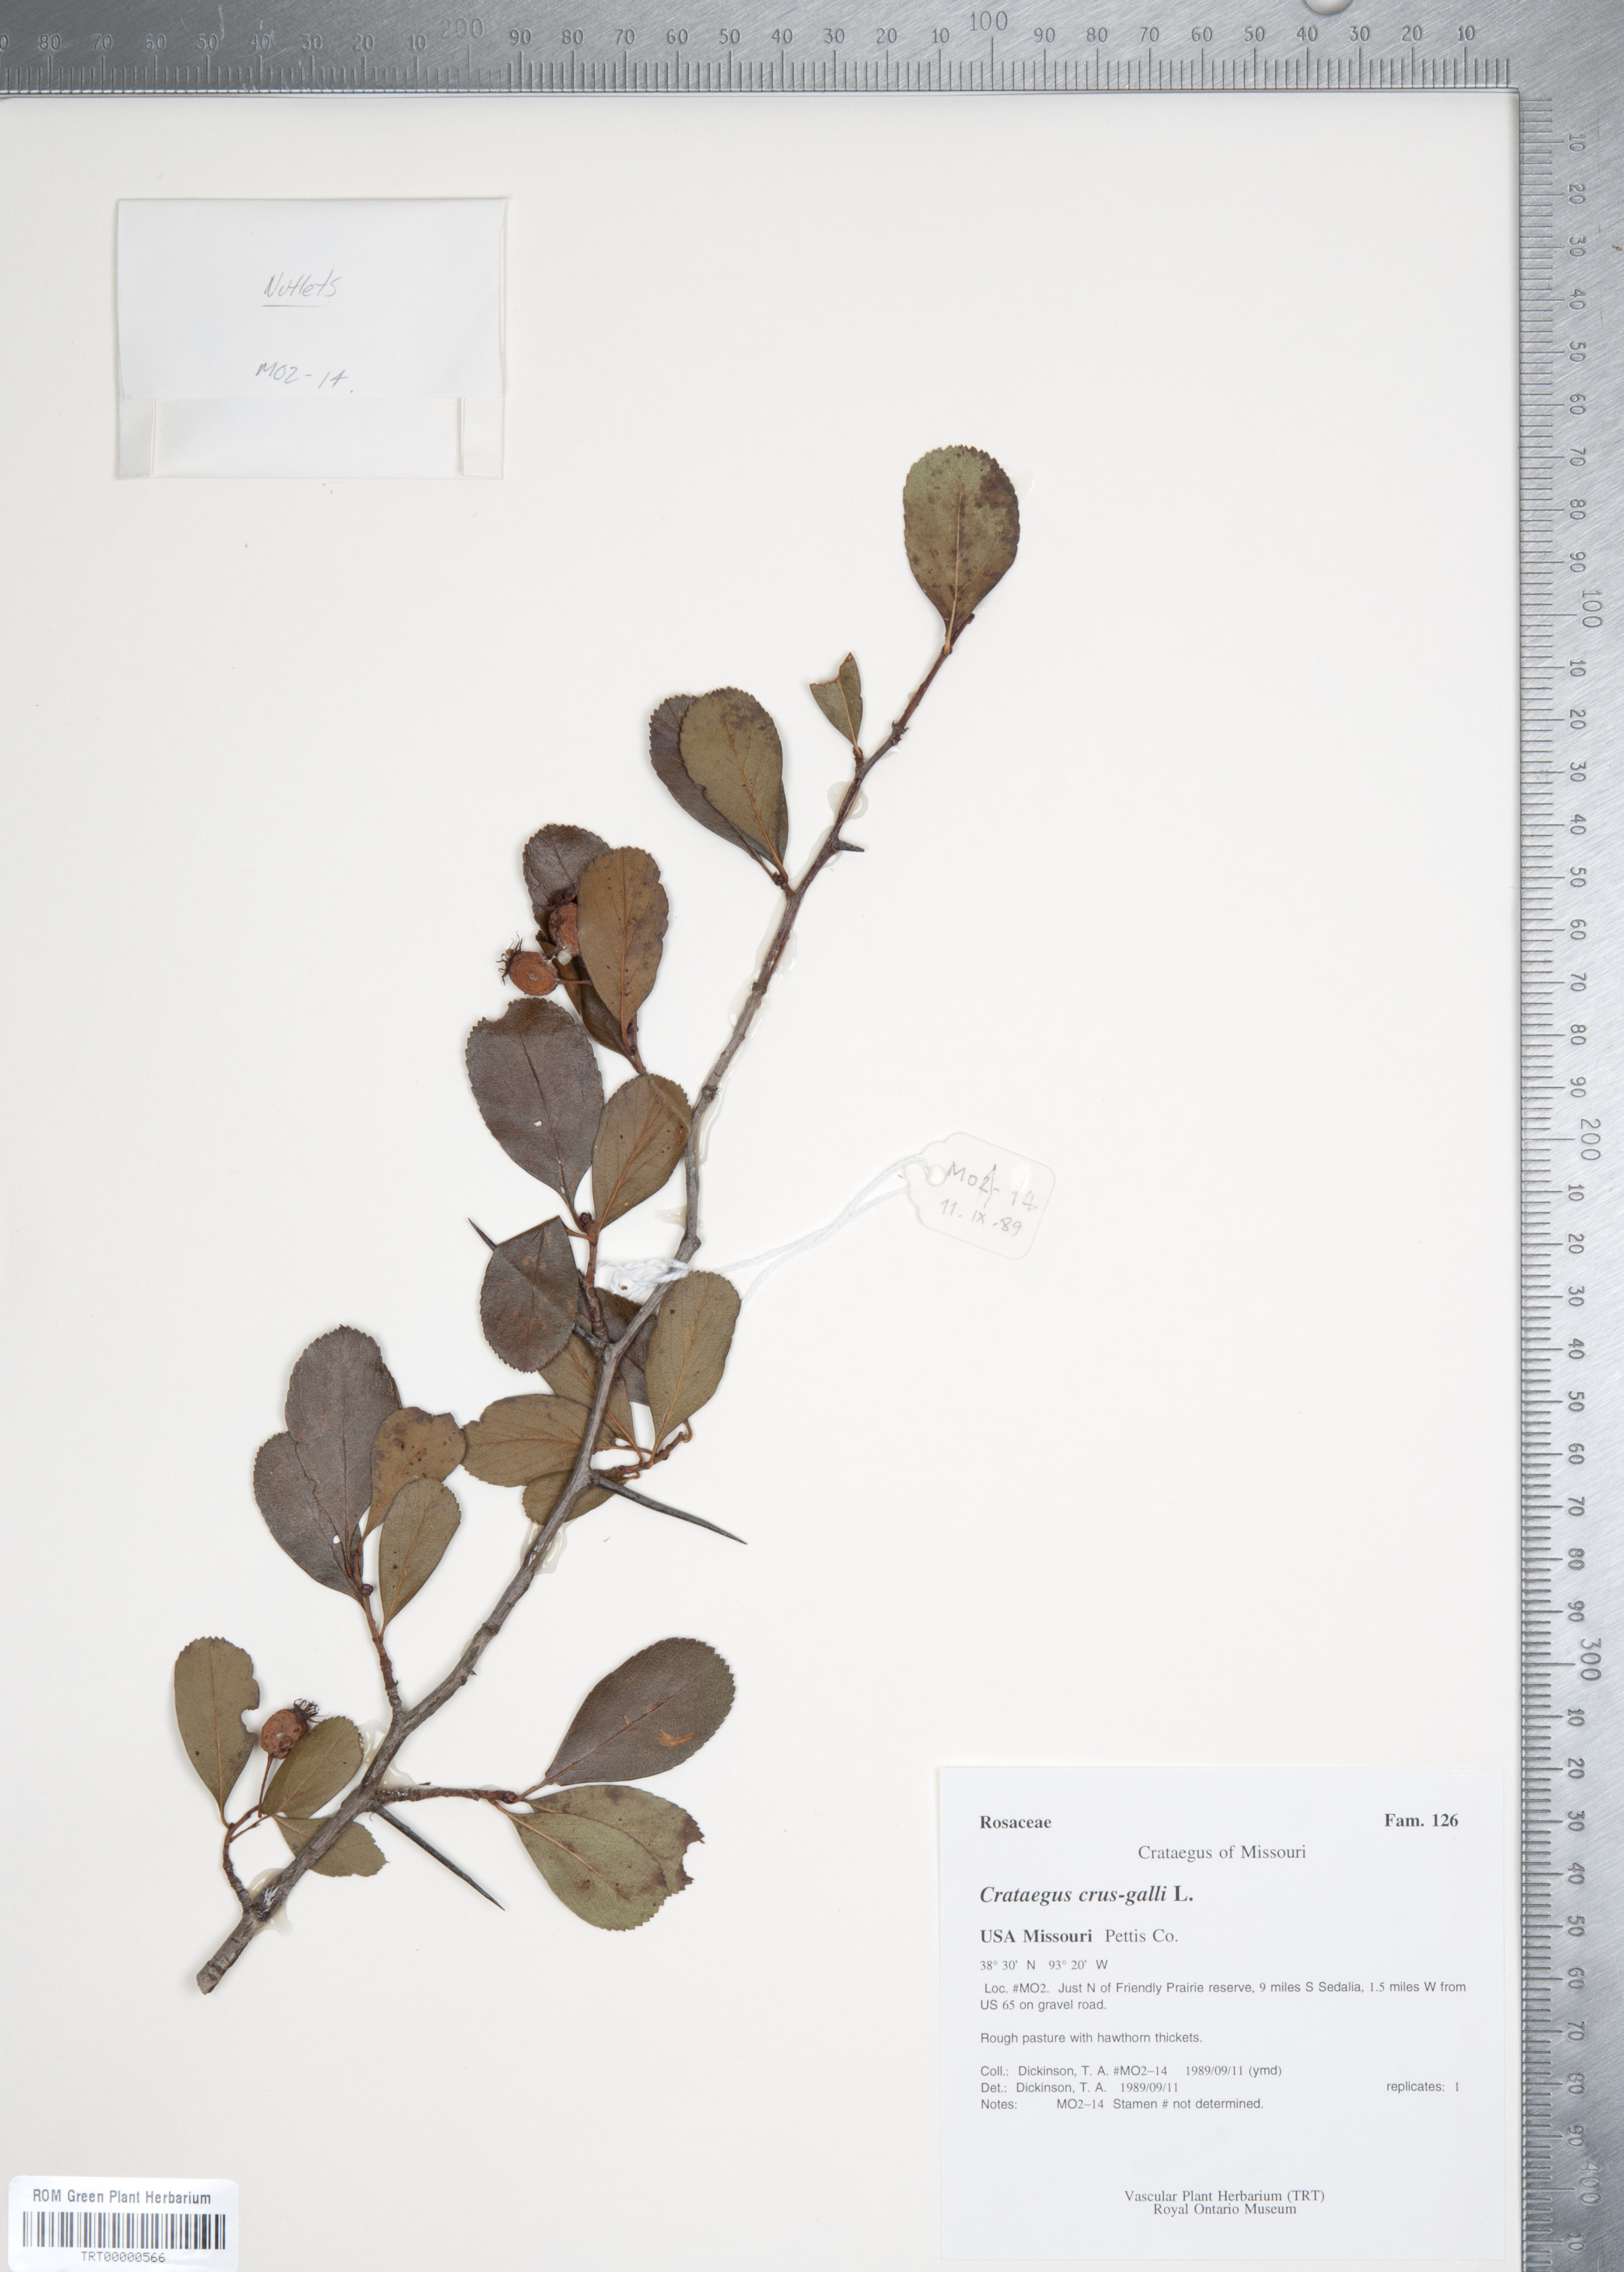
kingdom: Plantae
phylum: Tracheophyta
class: Magnoliopsida
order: Rosales
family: Rosaceae
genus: Crataegus
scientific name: Crataegus crus-galli
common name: Cockspurthorn
